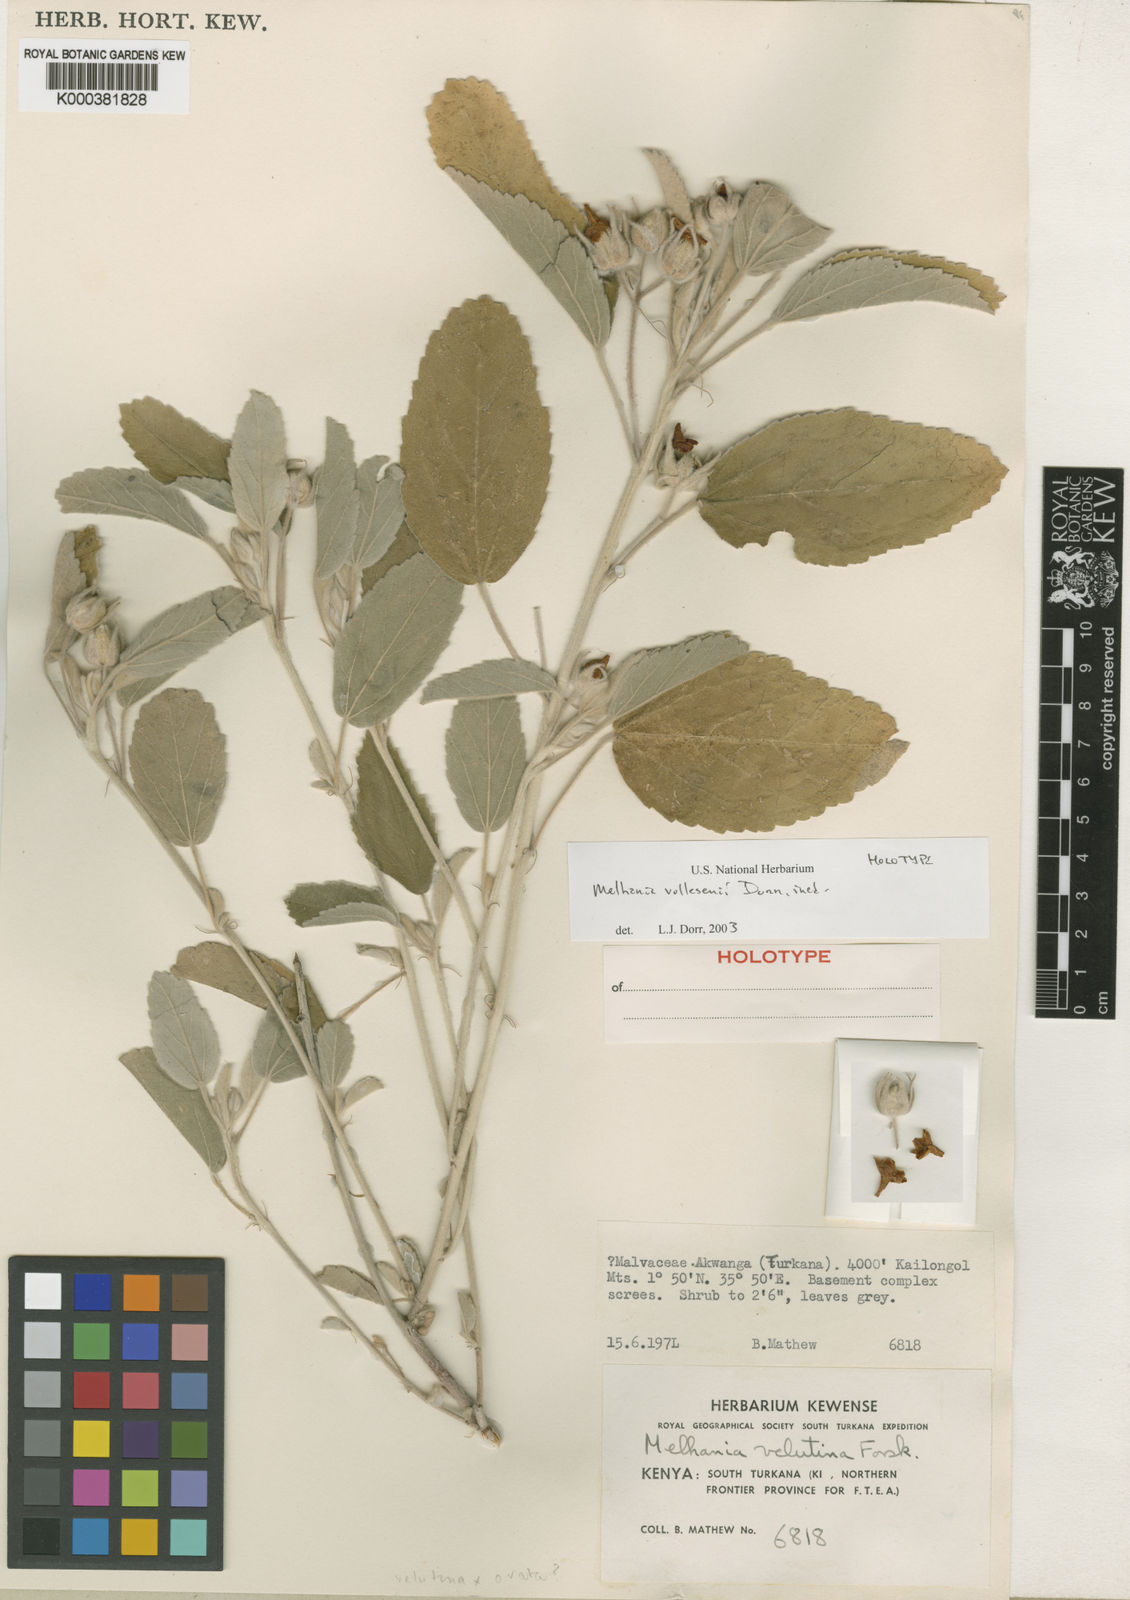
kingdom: Plantae
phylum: Tracheophyta
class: Magnoliopsida
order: Malvales
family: Malvaceae
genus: Melhania
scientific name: Melhania volleseniana
